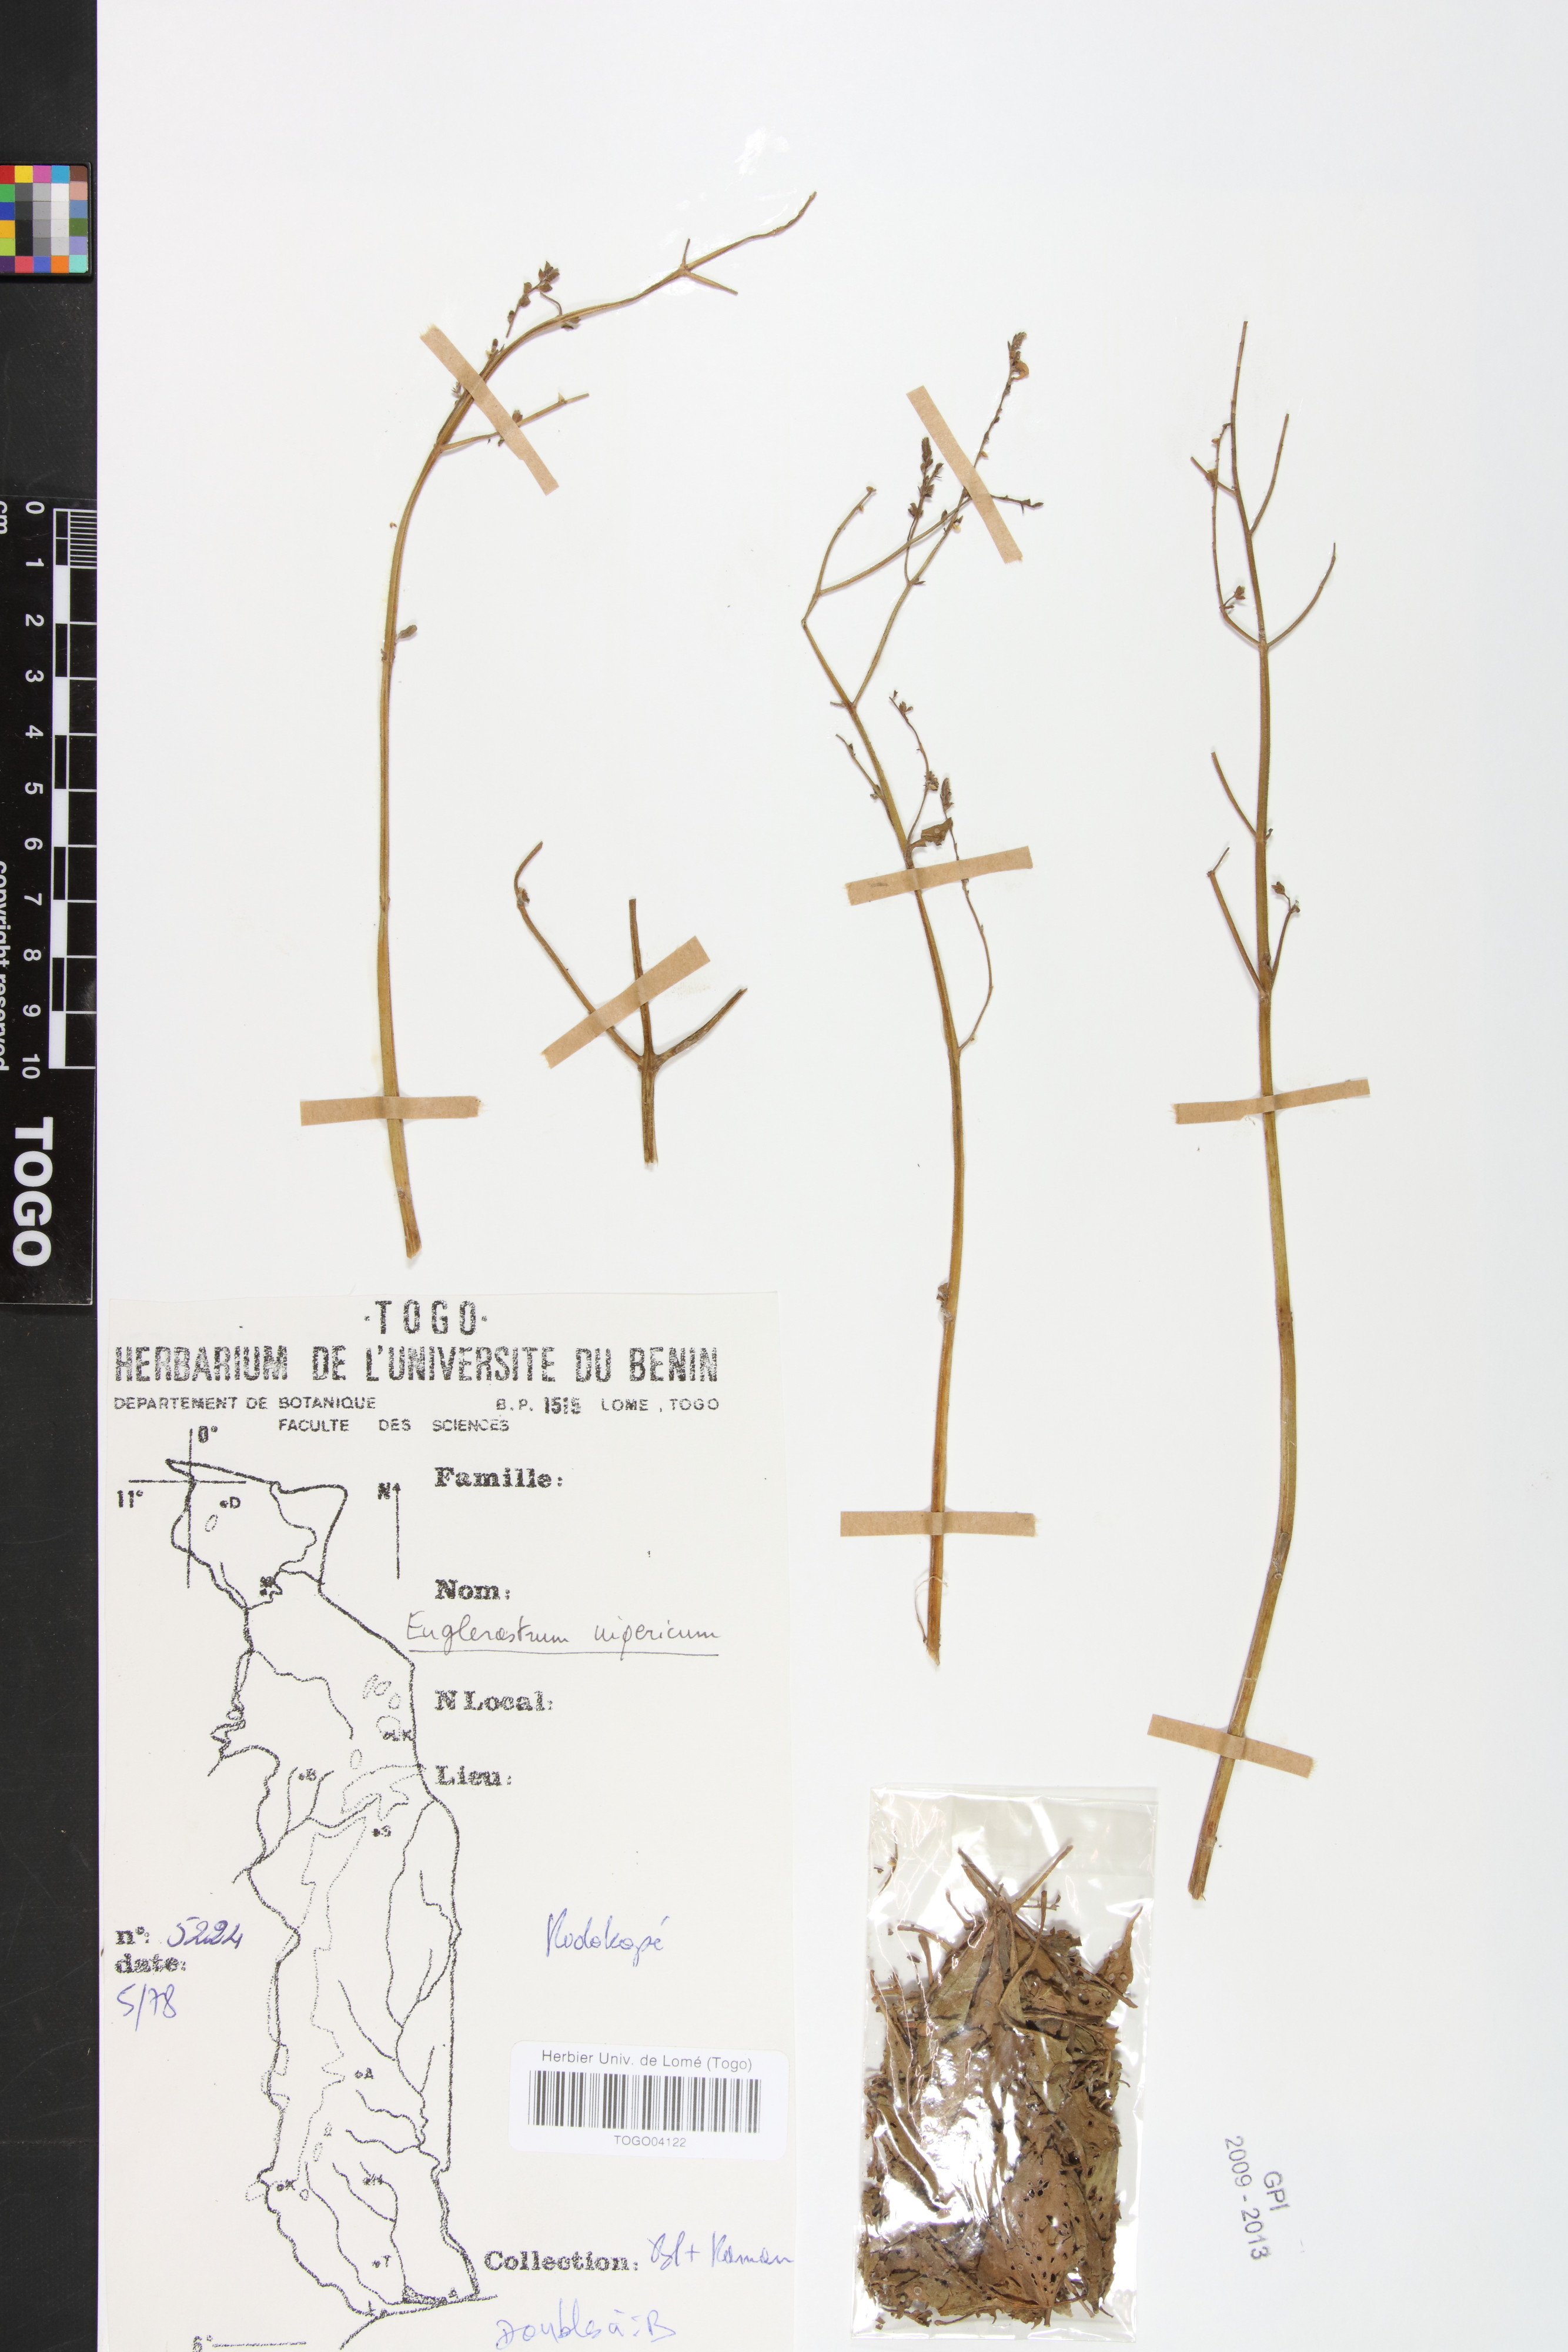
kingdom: Plantae
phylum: Tracheophyta
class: Magnoliopsida
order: Lamiales
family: Lamiaceae
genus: Coleus
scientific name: Coleus nigericus
